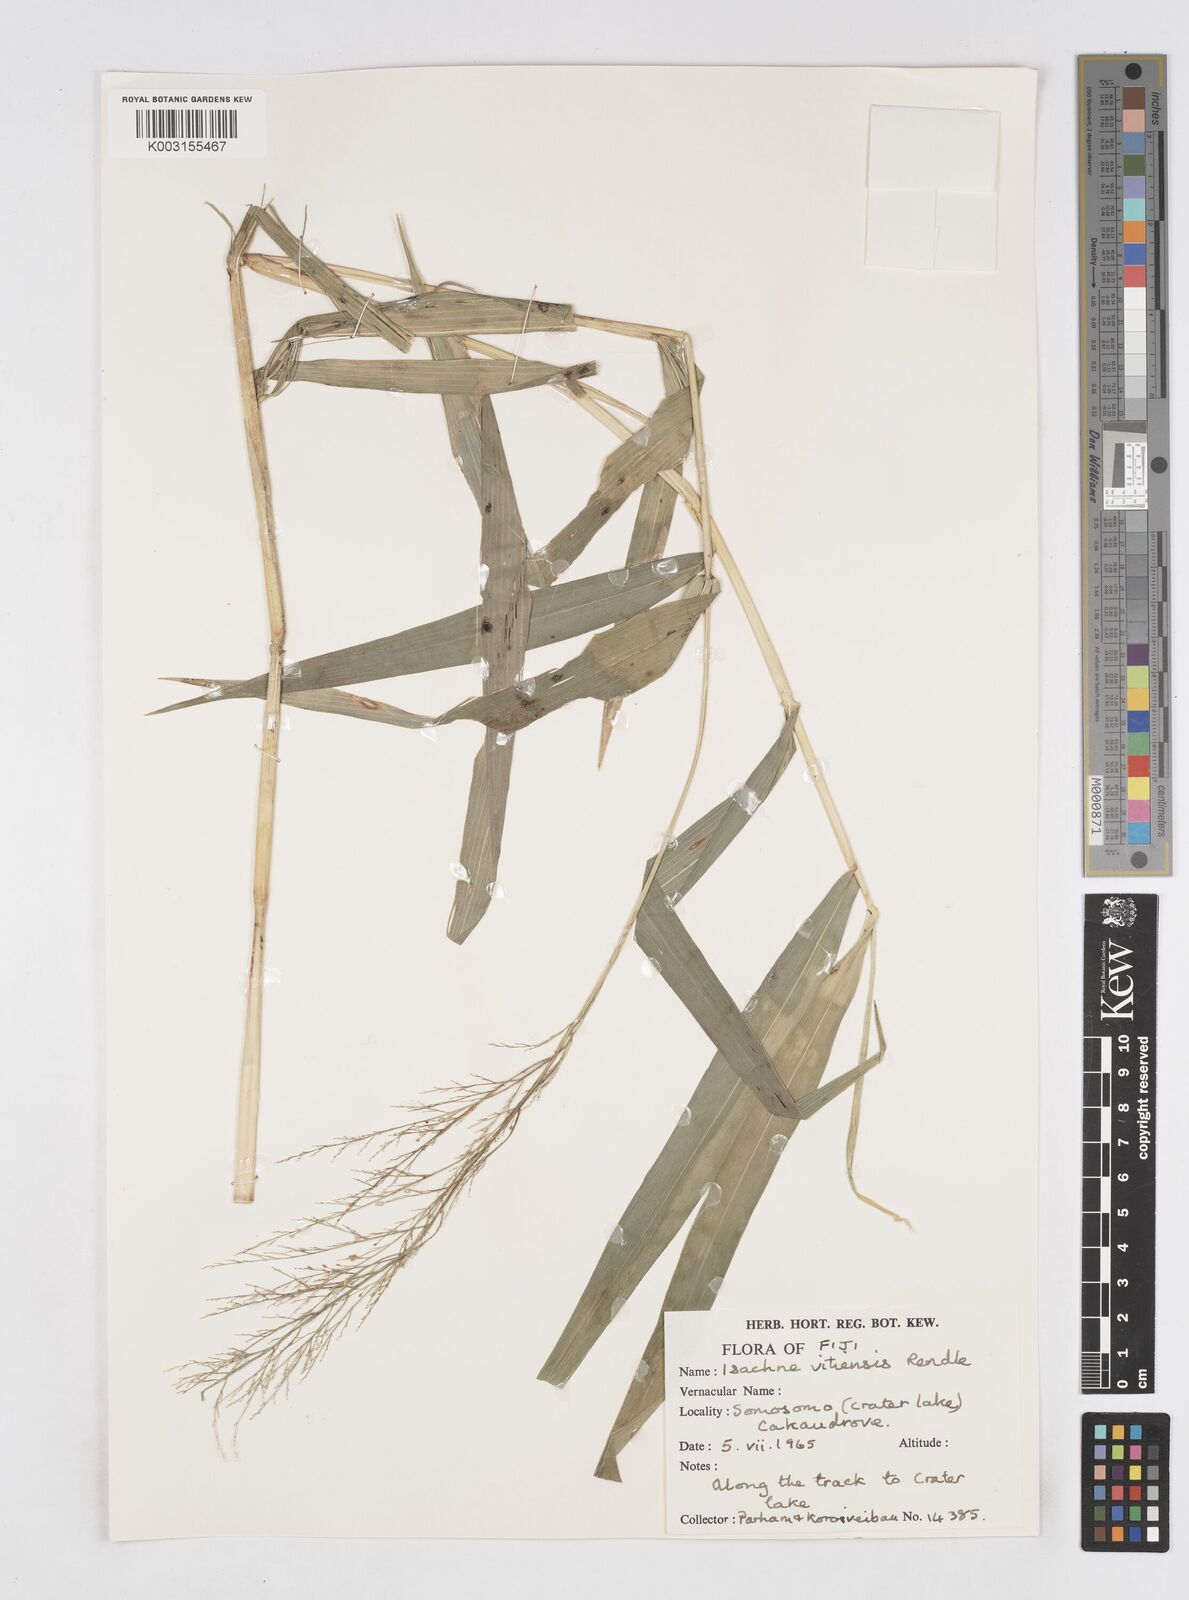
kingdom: Plantae
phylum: Tracheophyta
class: Liliopsida
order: Poales
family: Poaceae
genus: Isachne
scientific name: Isachne vitiensis
